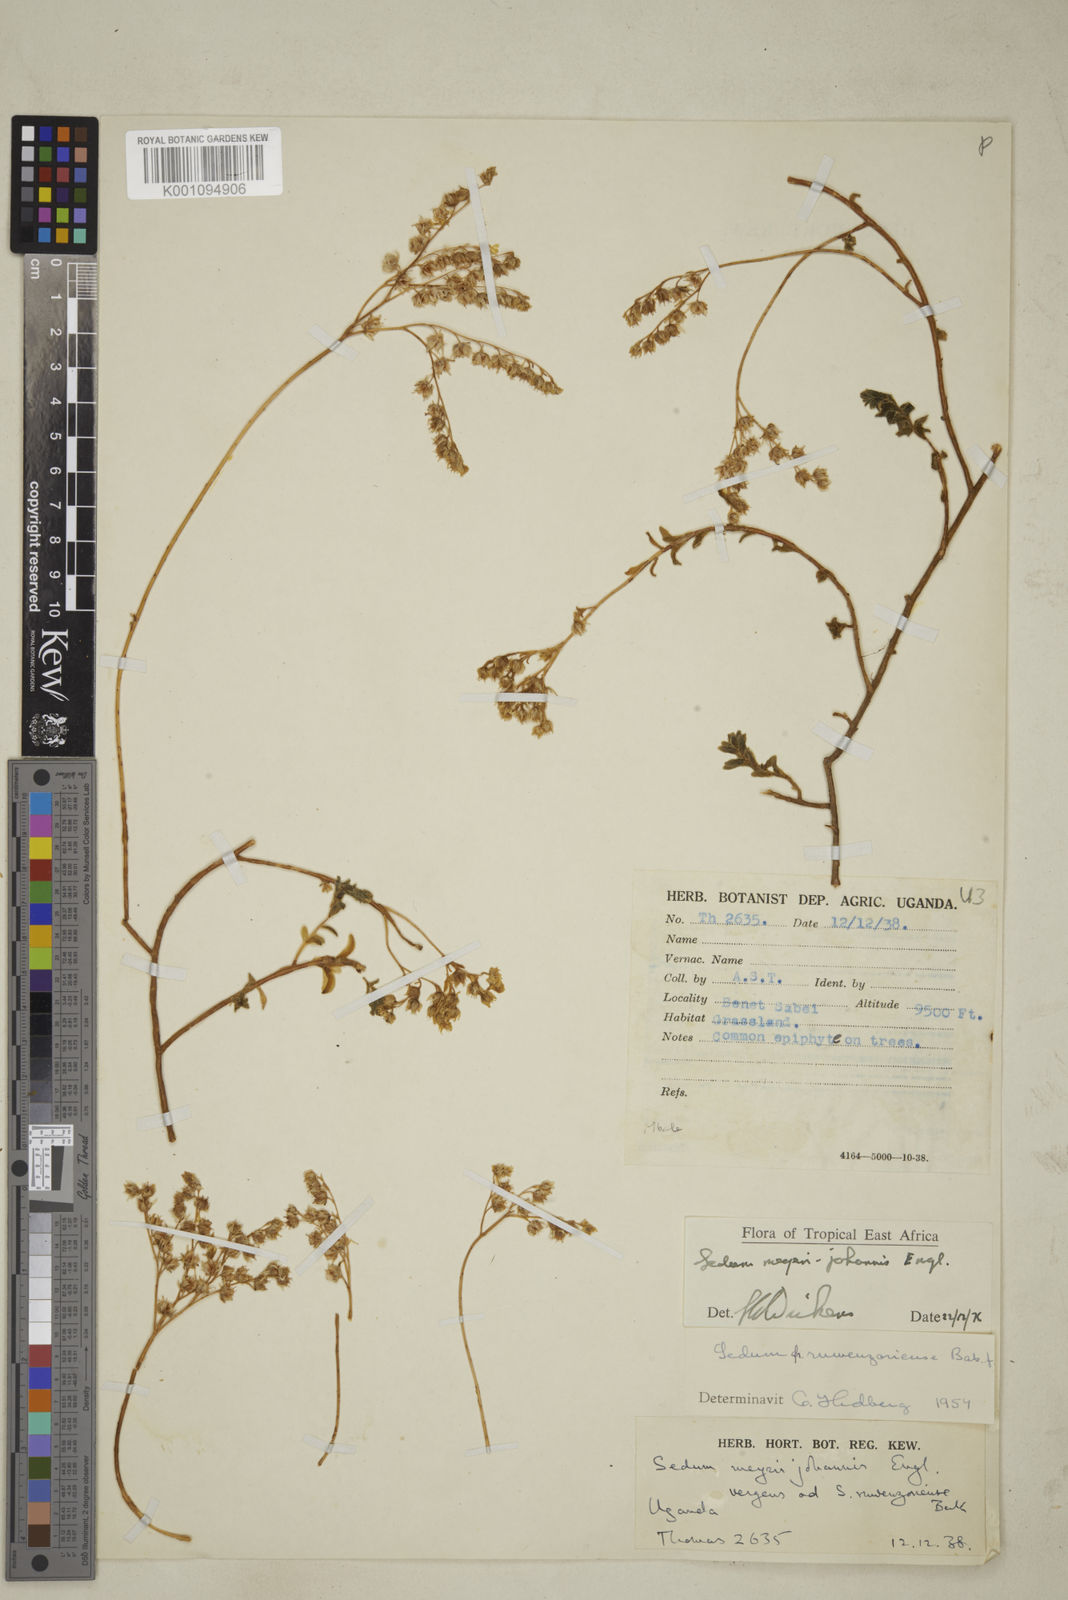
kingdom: Plantae
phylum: Tracheophyta
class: Magnoliopsida
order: Saxifragales
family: Crassulaceae
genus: Sedum
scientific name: Sedum meyeri-johannis
